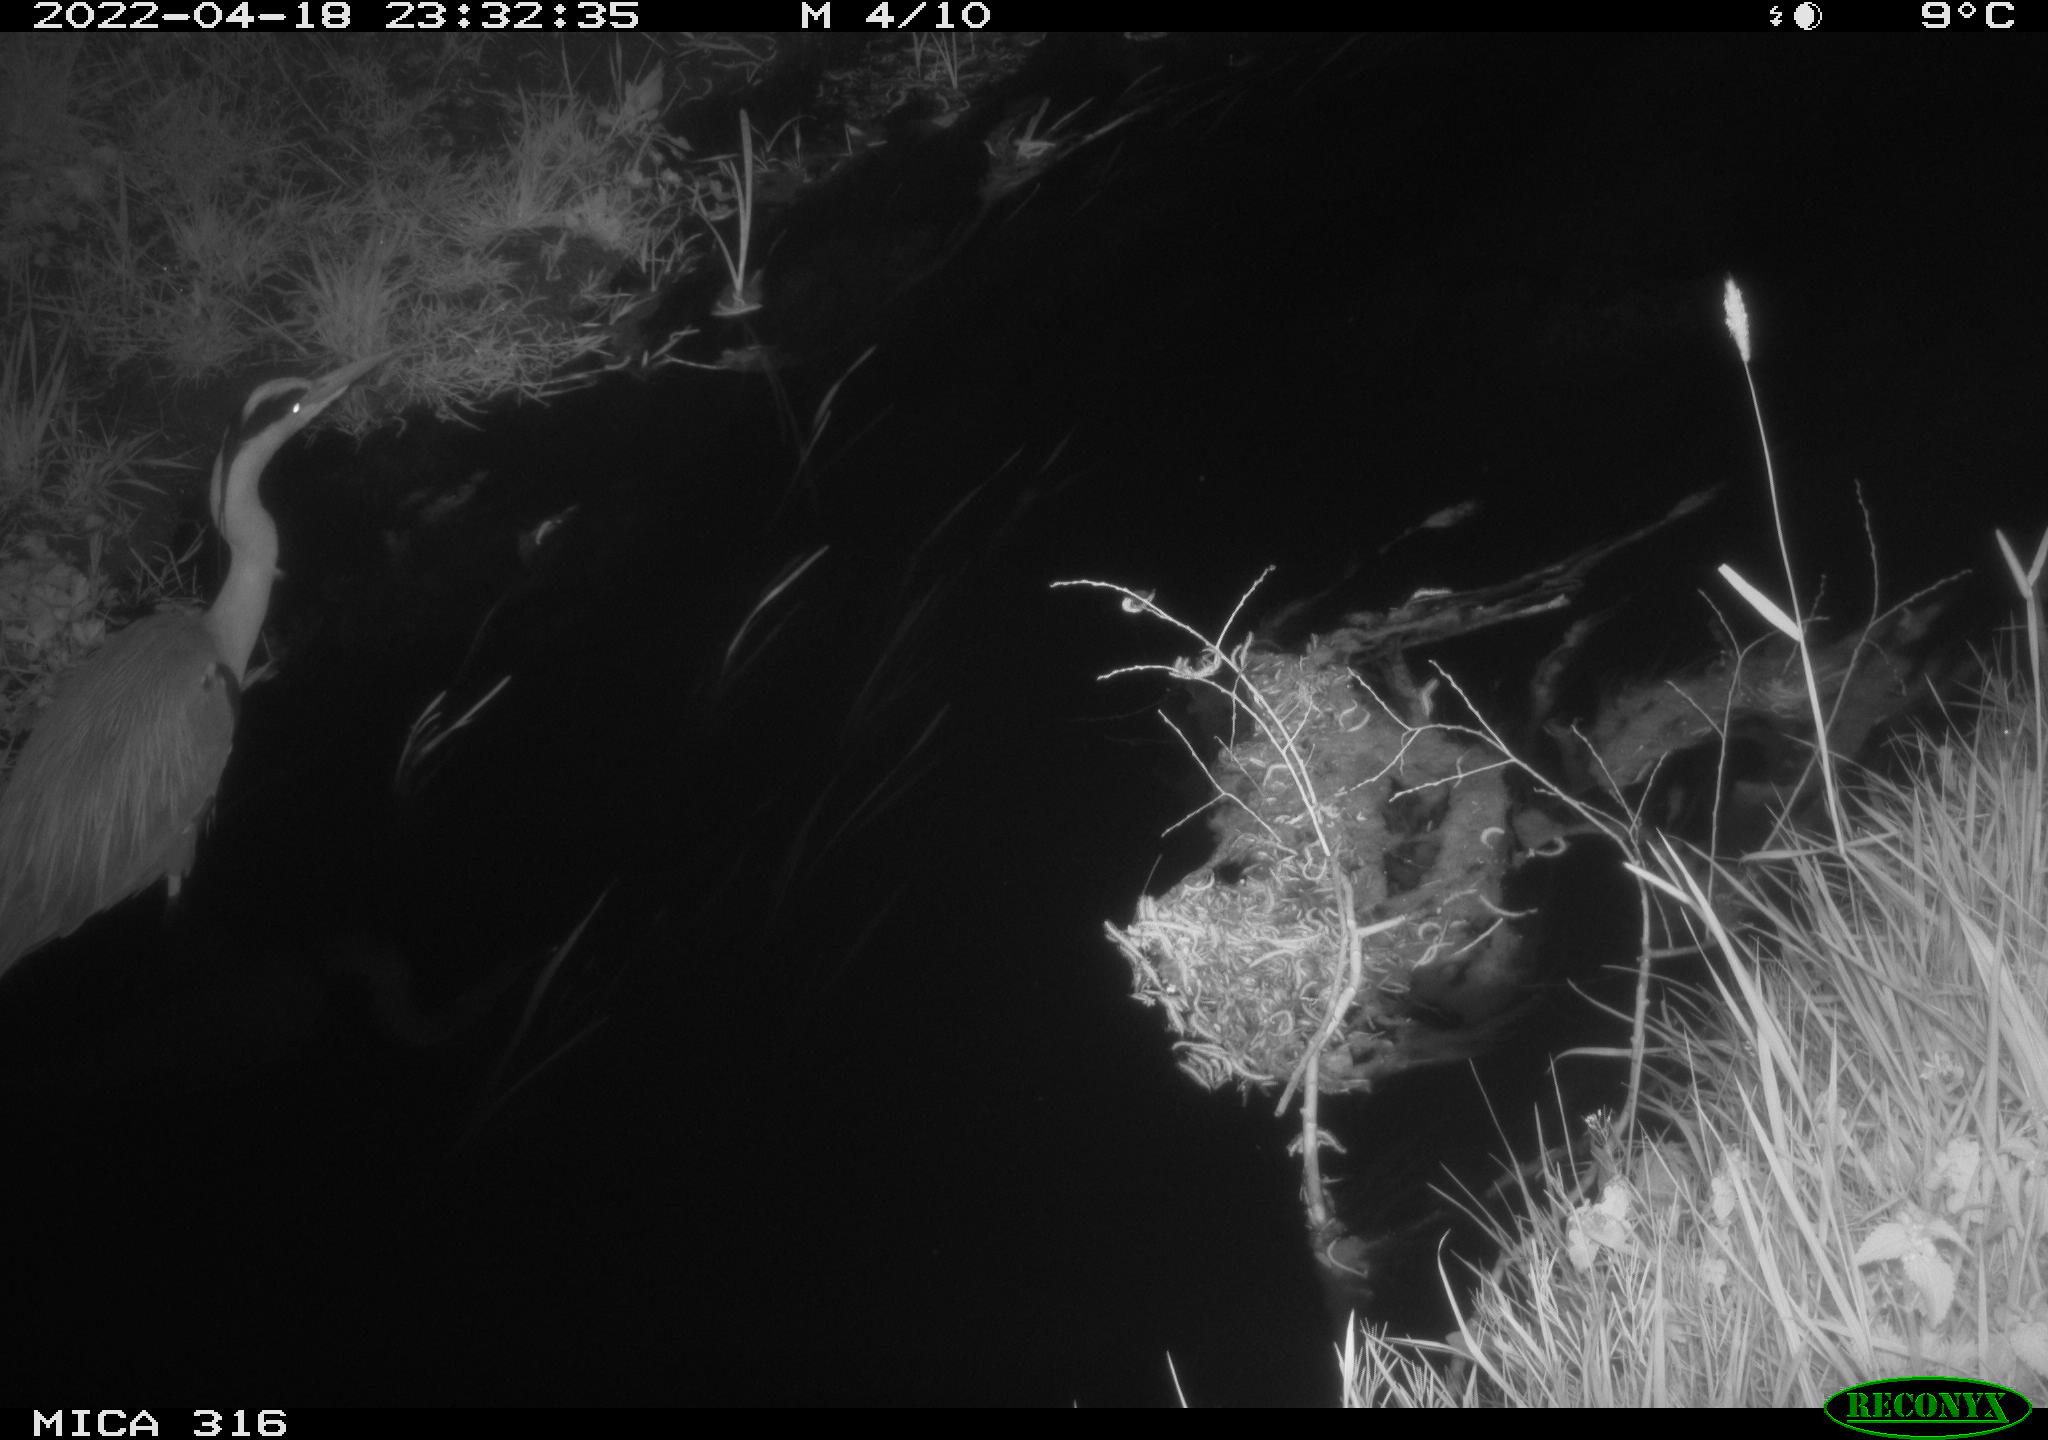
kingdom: Animalia
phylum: Chordata
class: Aves
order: Pelecaniformes
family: Ardeidae
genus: Ardea
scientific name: Ardea
